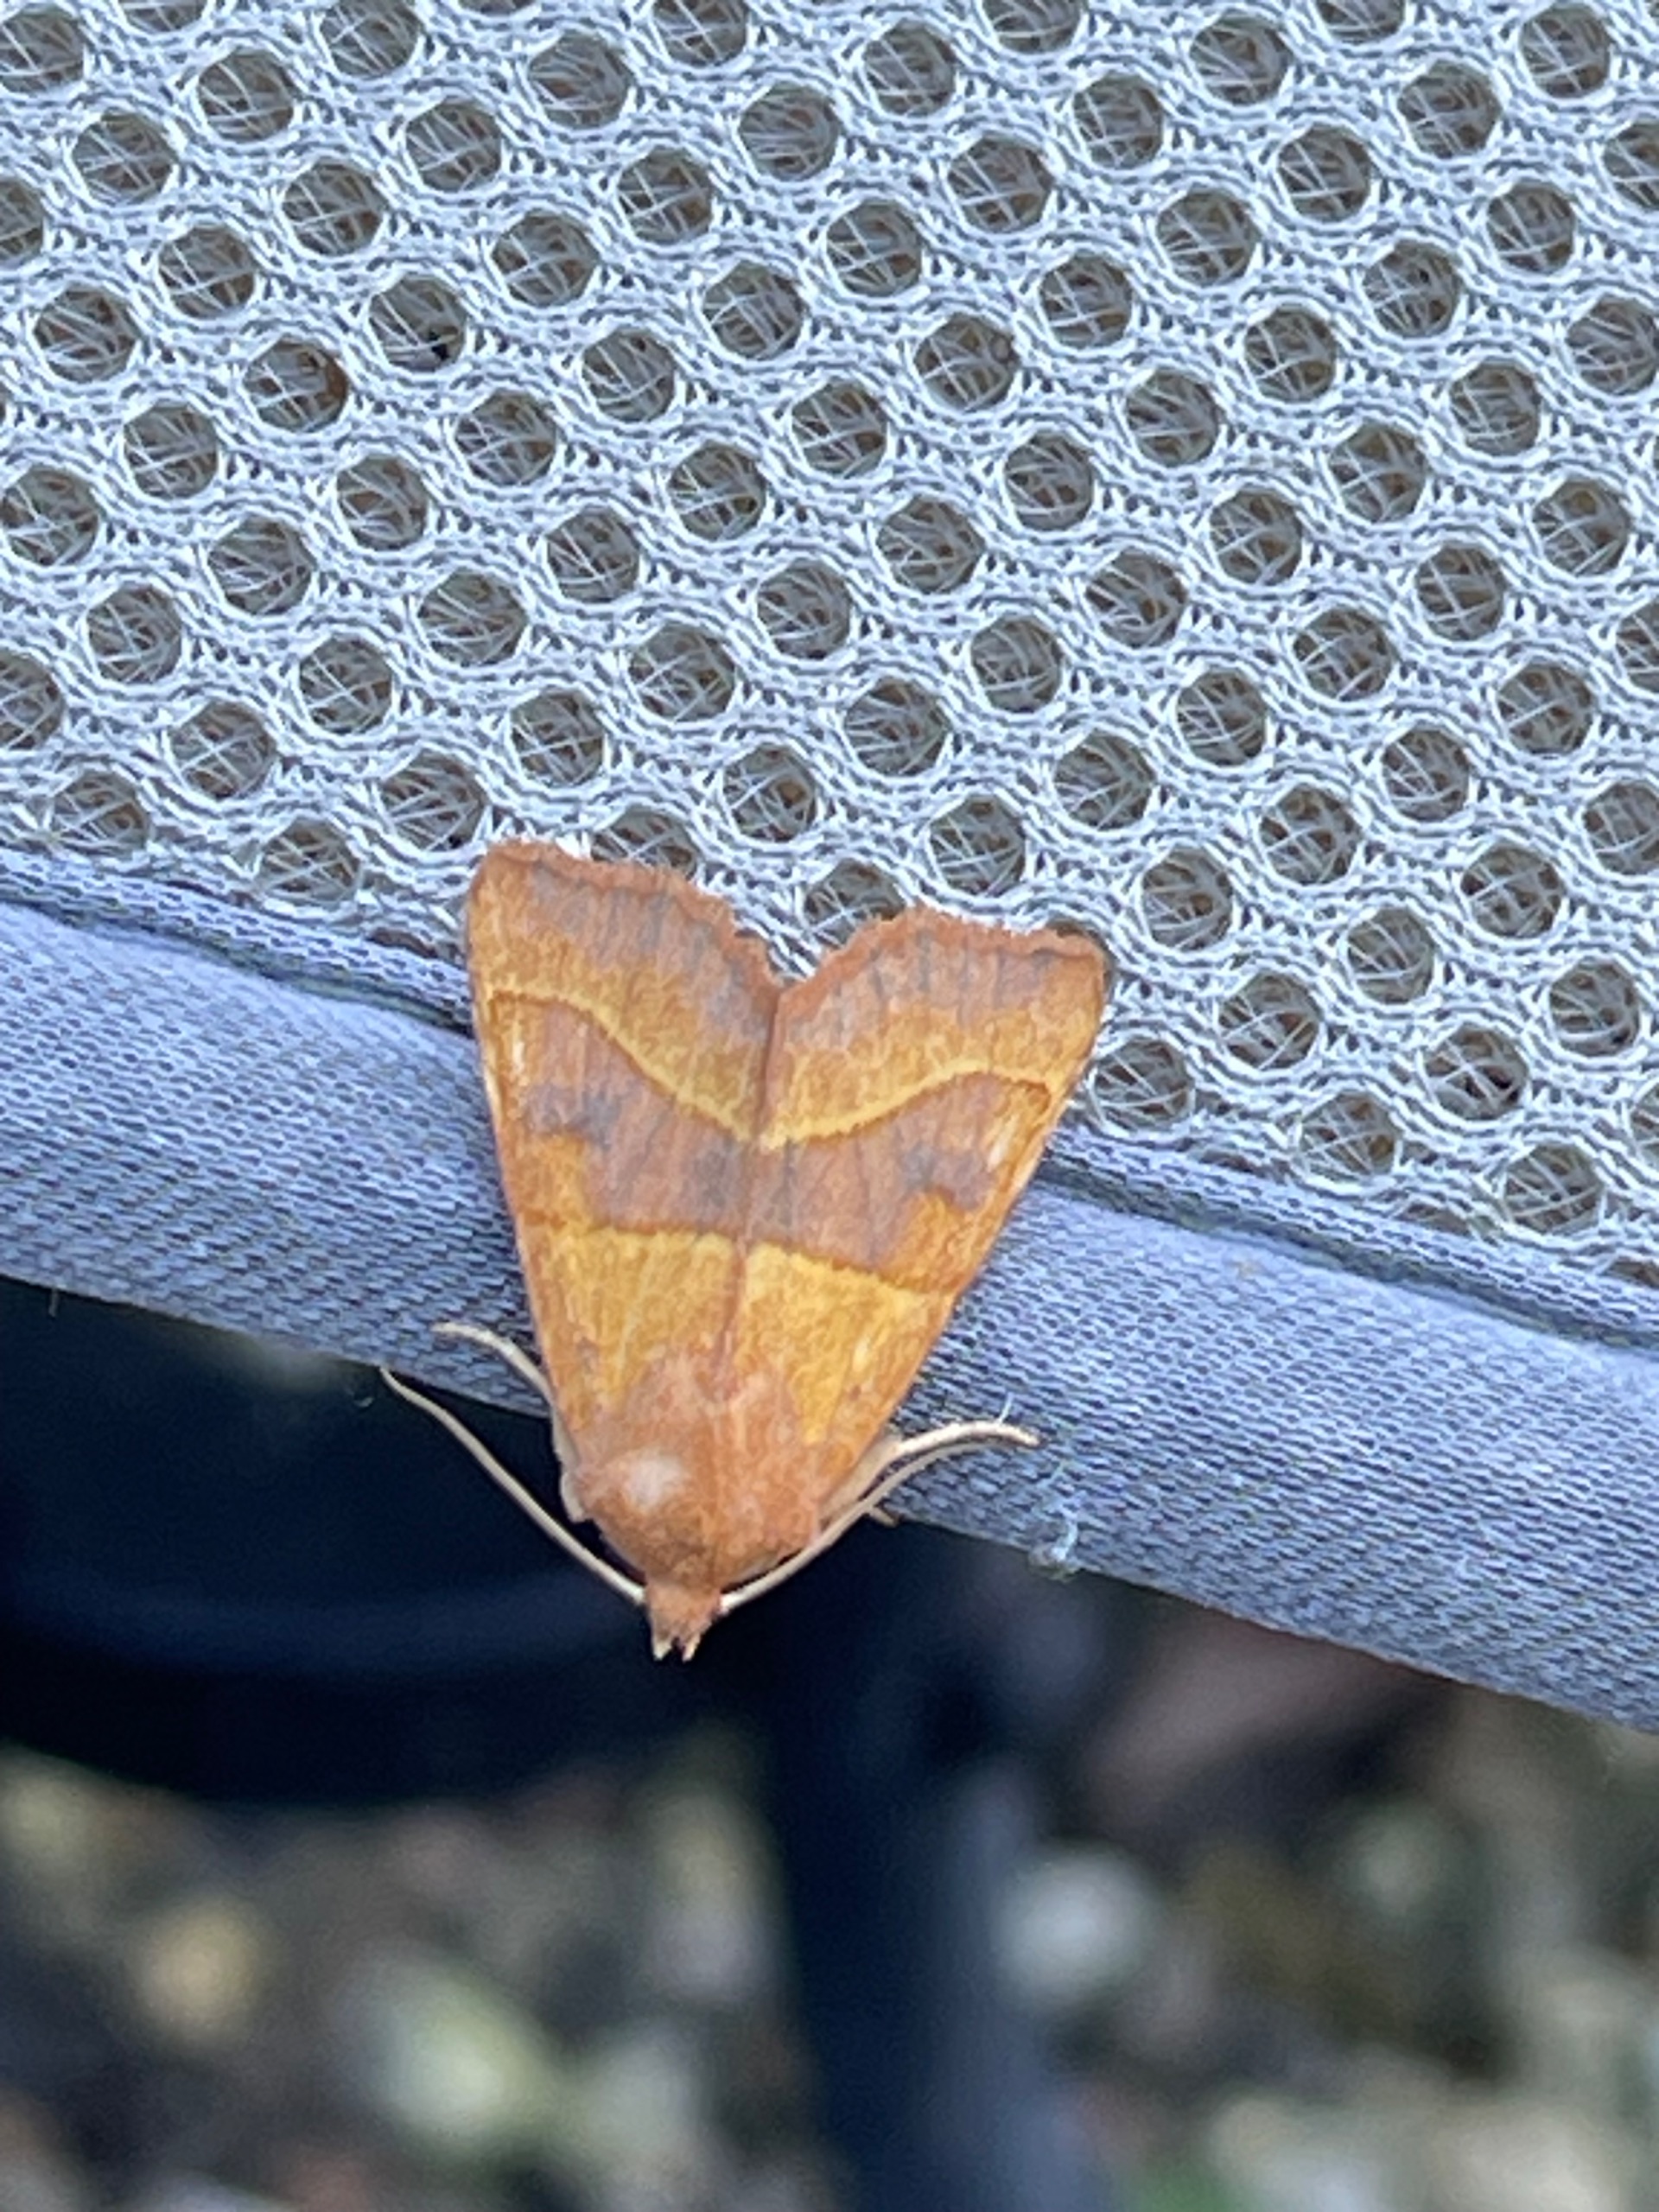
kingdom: Animalia
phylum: Arthropoda
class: Insecta
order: Lepidoptera
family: Noctuidae
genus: Atethmia
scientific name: Atethmia centrago
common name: Aske-septemberugle
